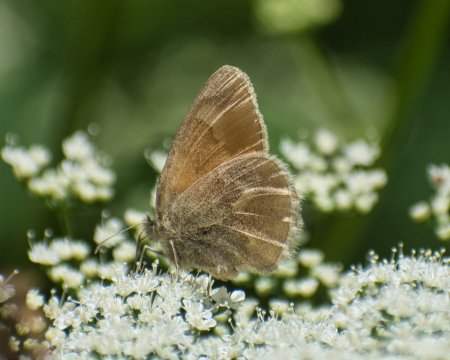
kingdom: Animalia
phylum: Arthropoda
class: Insecta
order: Lepidoptera
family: Nymphalidae
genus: Coenonympha
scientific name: Coenonympha tullia
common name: Large Heath
